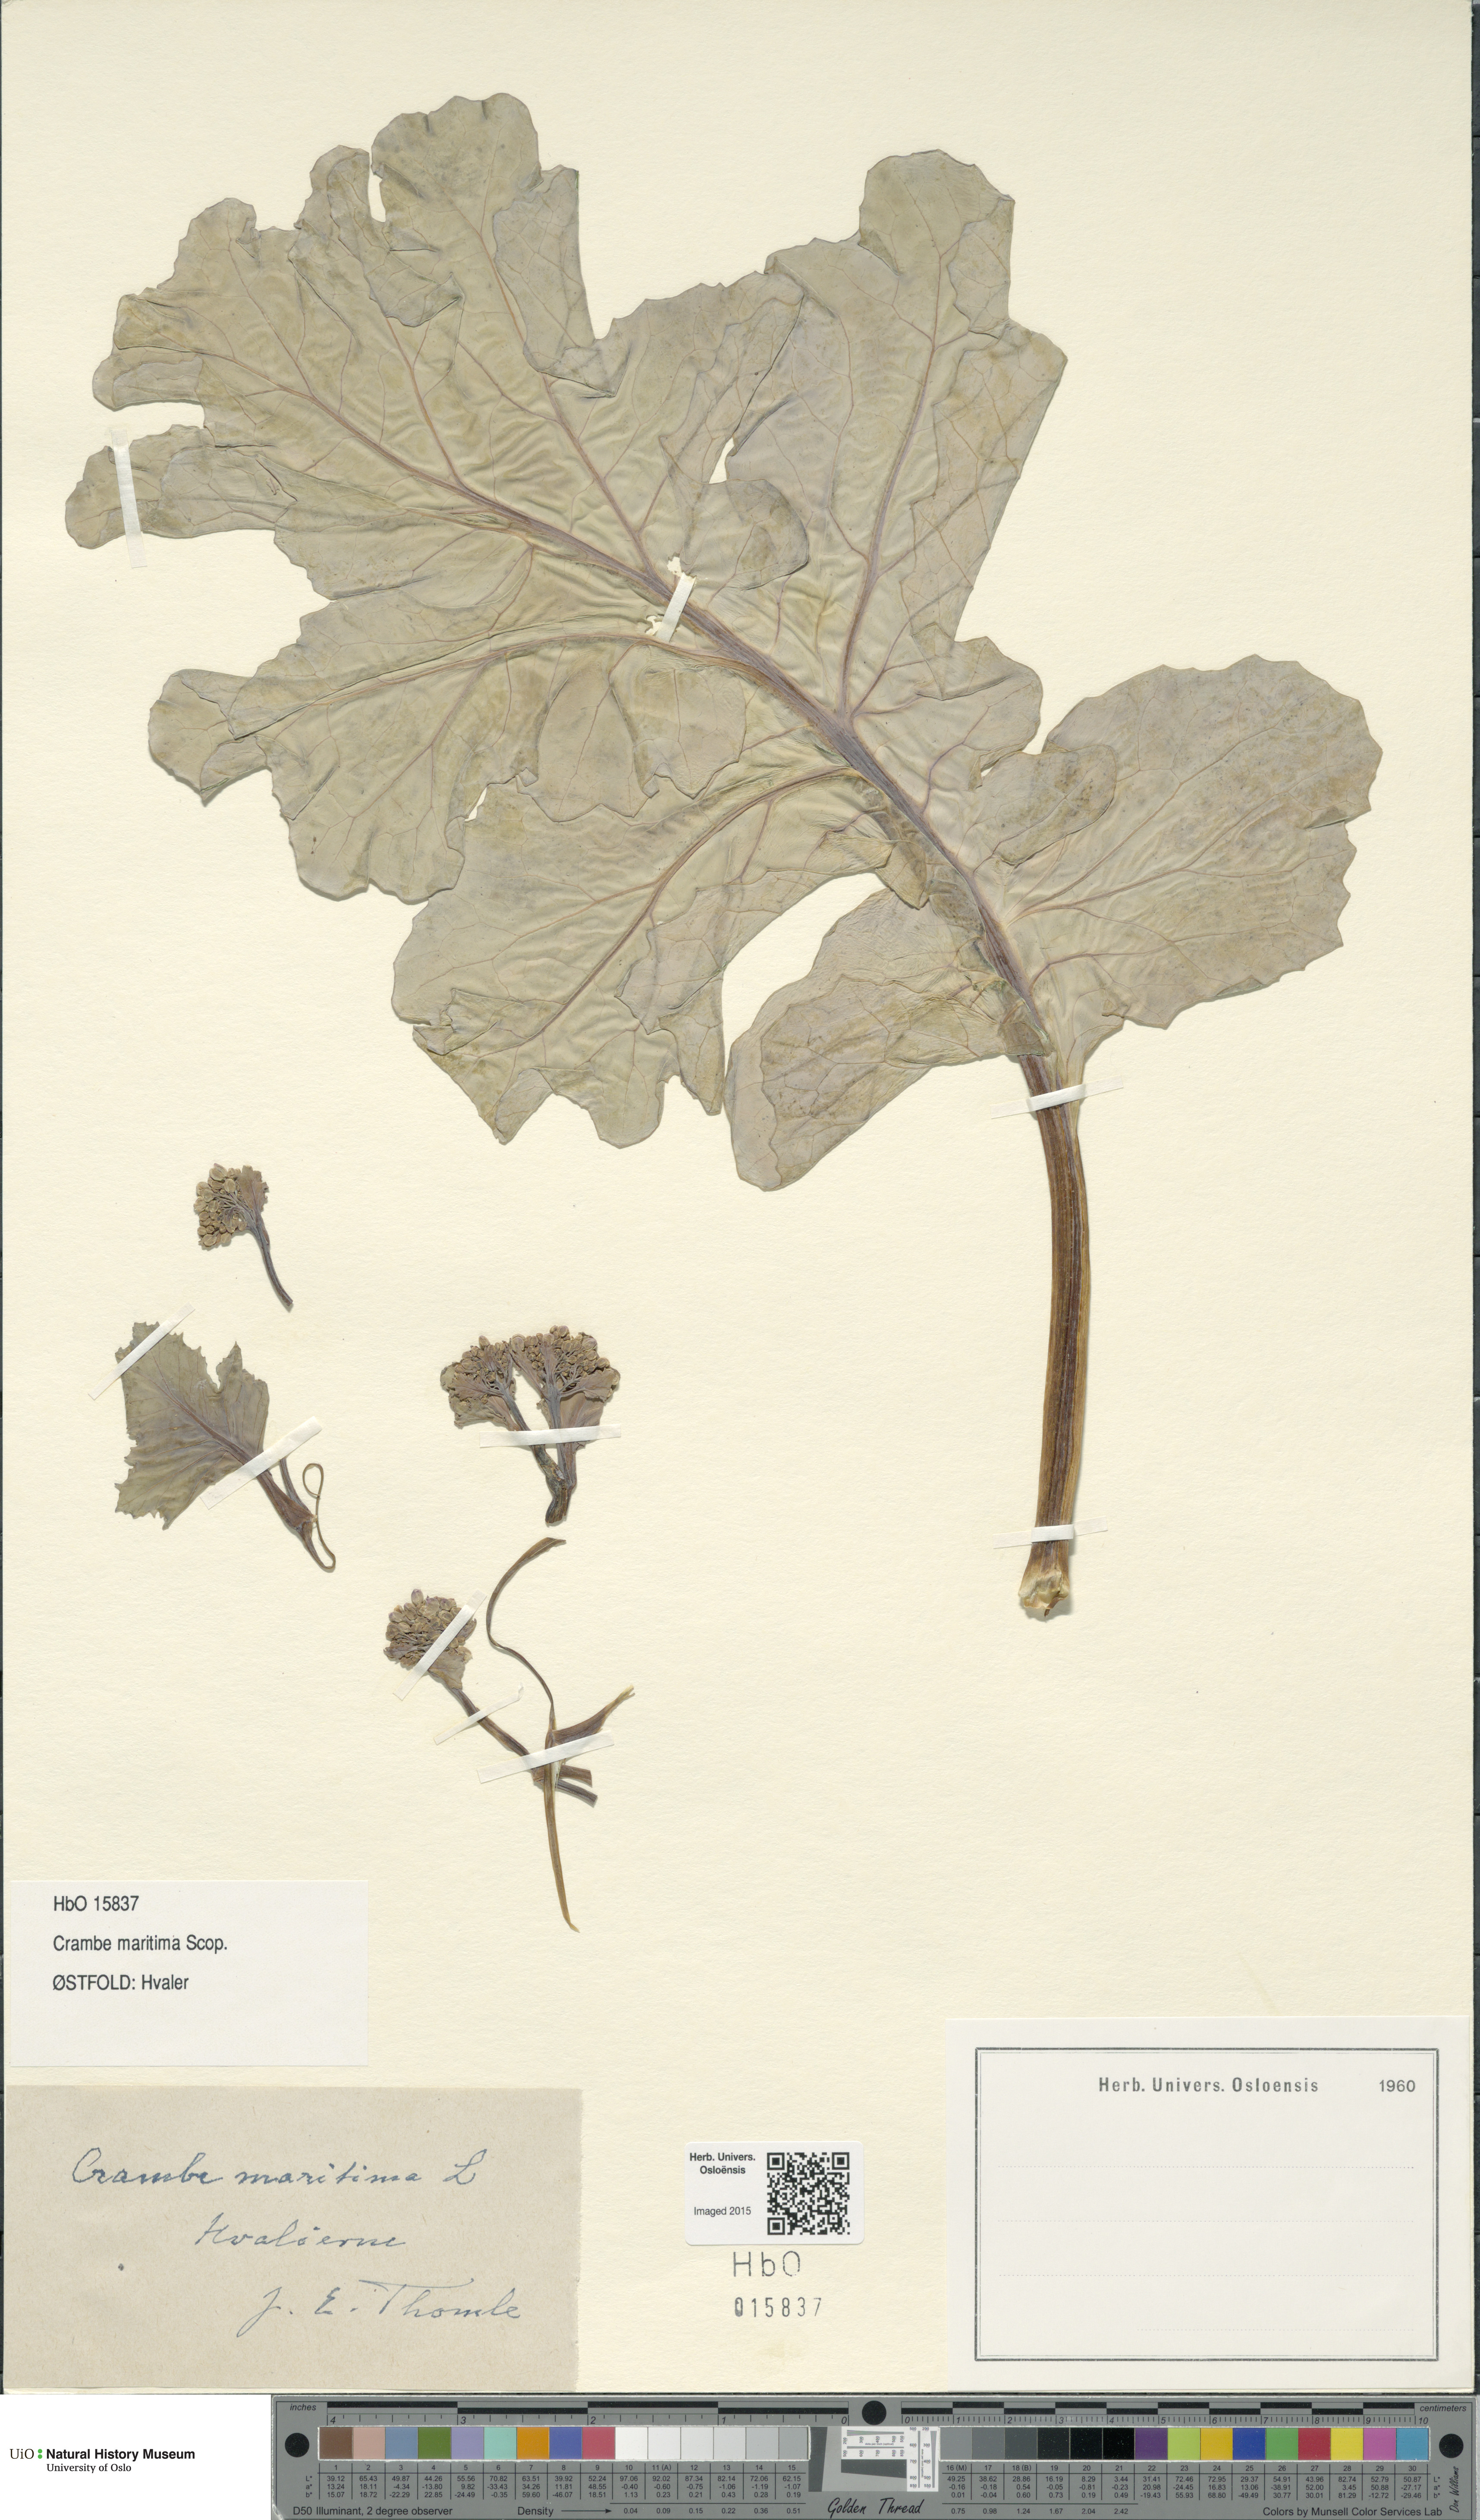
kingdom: Plantae
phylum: Tracheophyta
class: Magnoliopsida
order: Brassicales
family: Brassicaceae
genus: Crambe
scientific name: Crambe maritima
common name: Sea-kale
